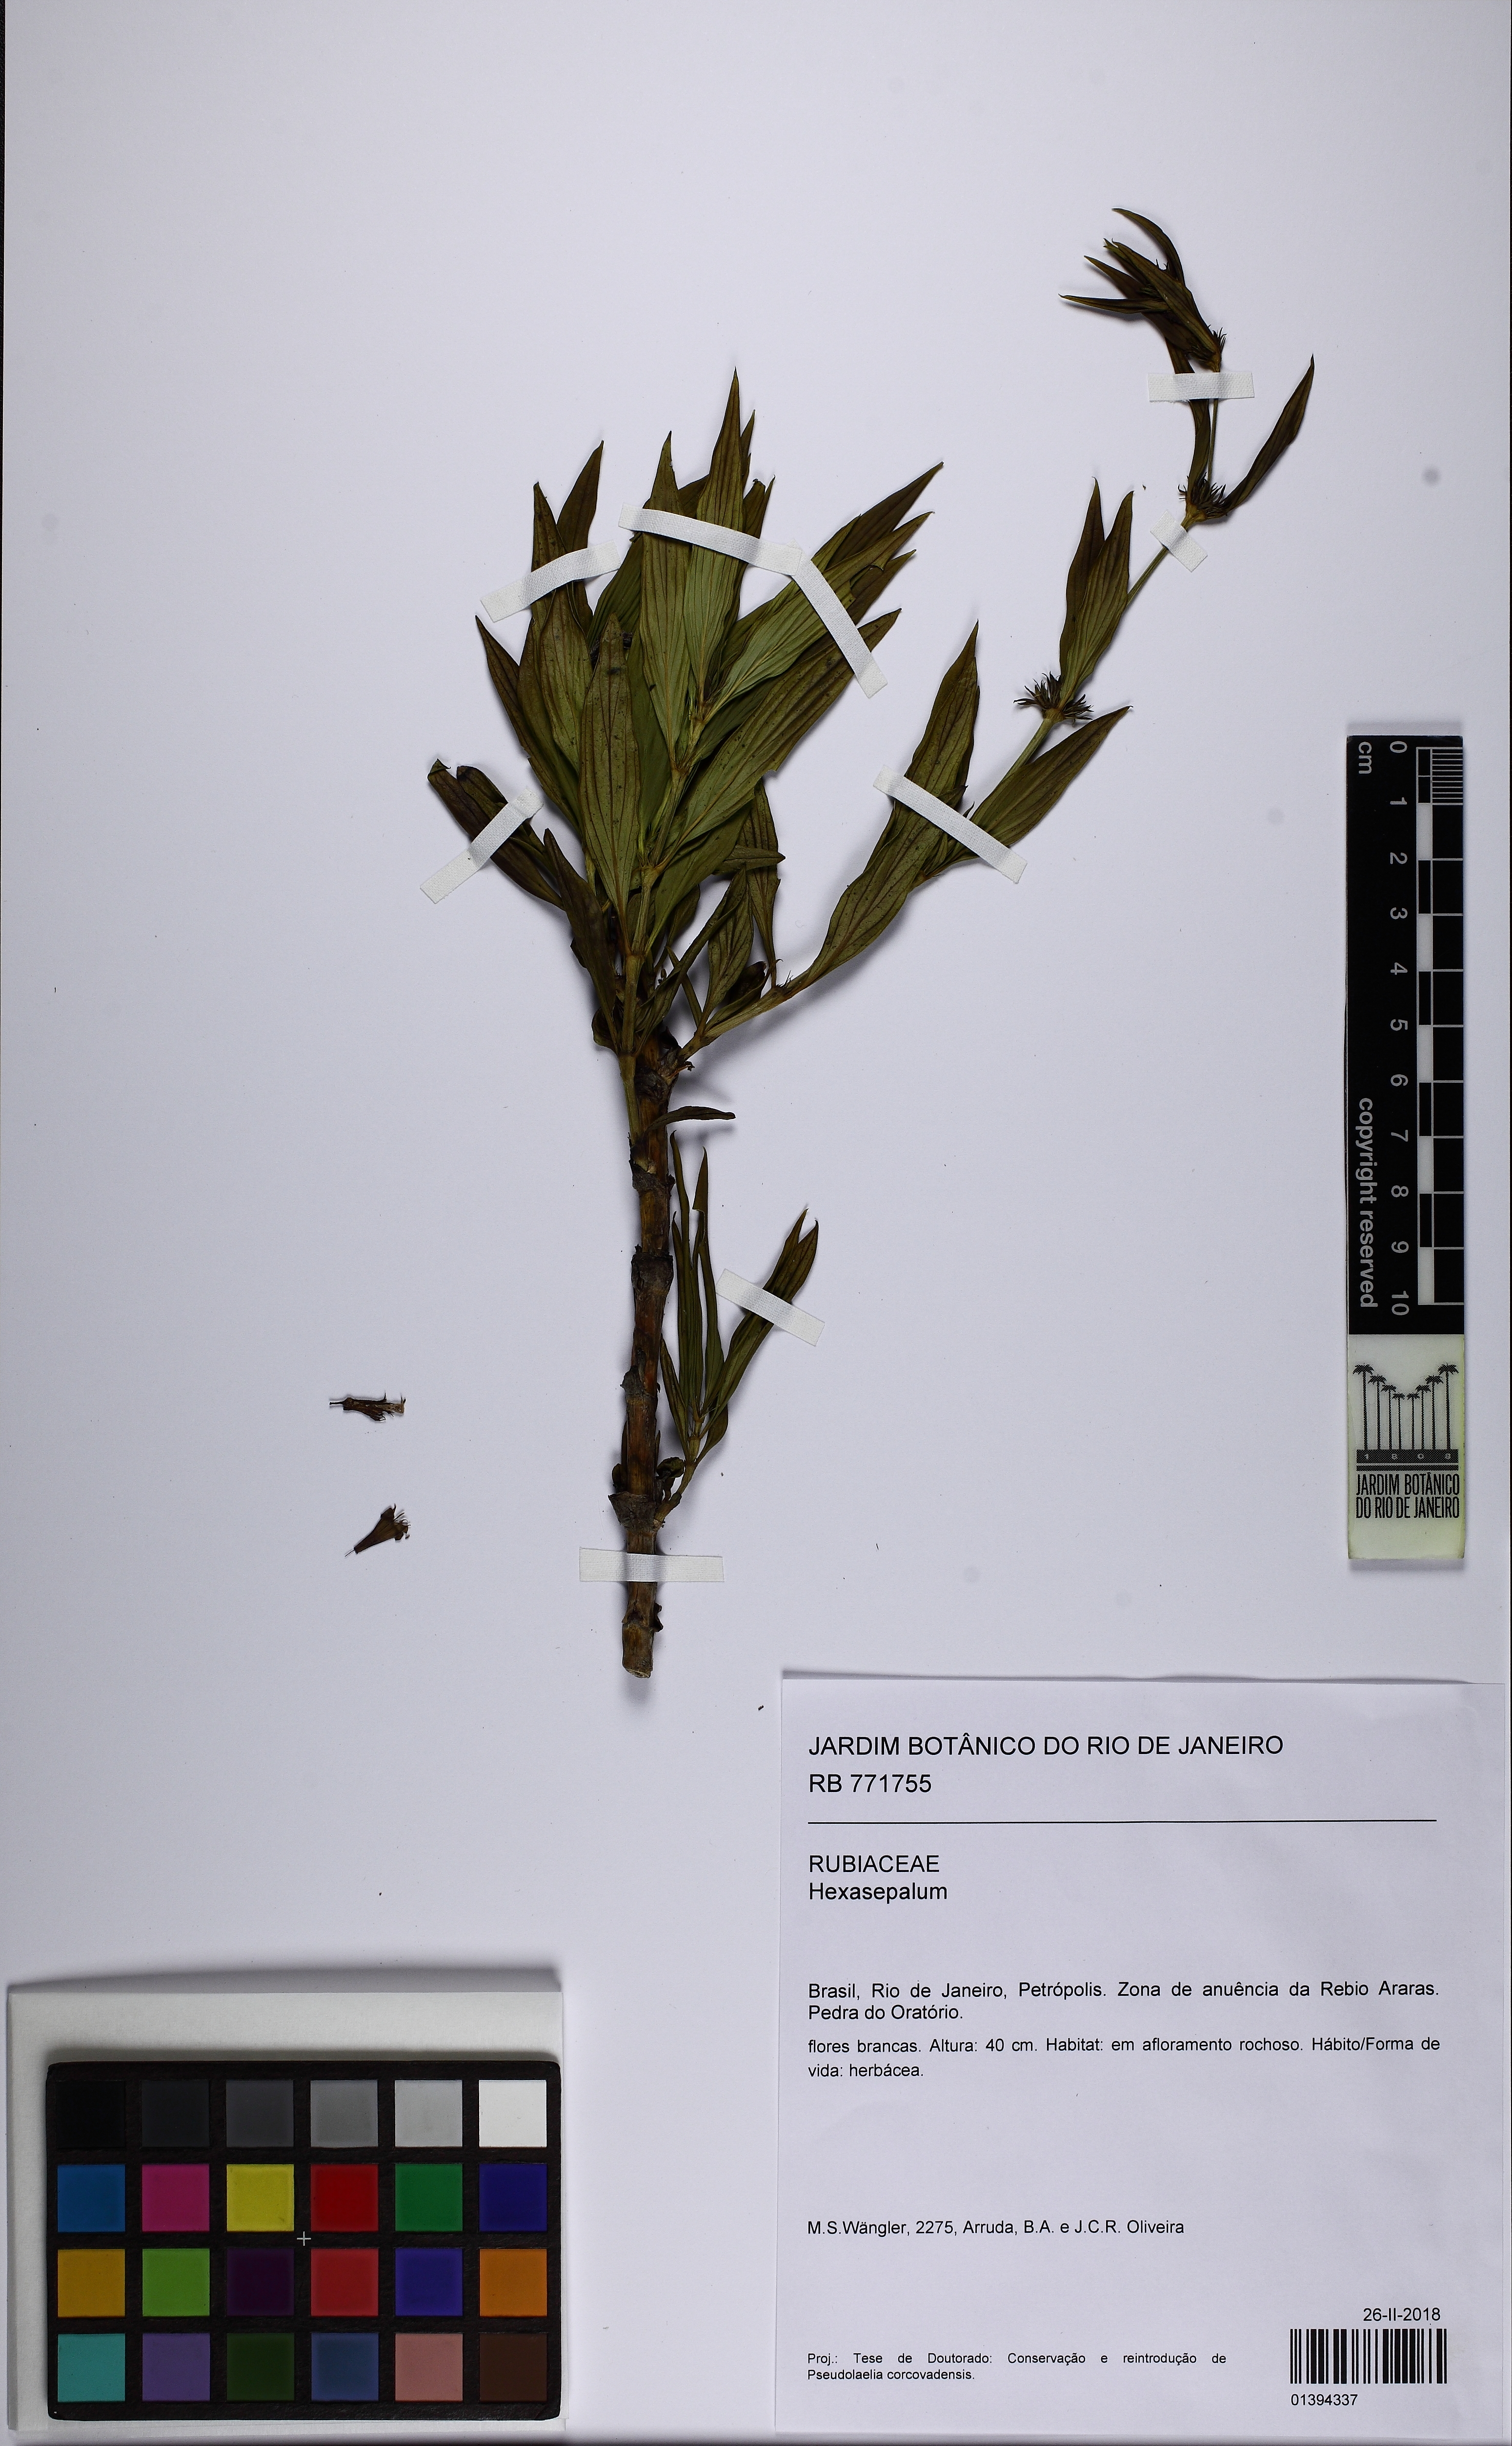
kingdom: Plantae
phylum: Tracheophyta
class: Magnoliopsida
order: Gentianales
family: Rubiaceae
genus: Hexasepalum
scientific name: Hexasepalum
